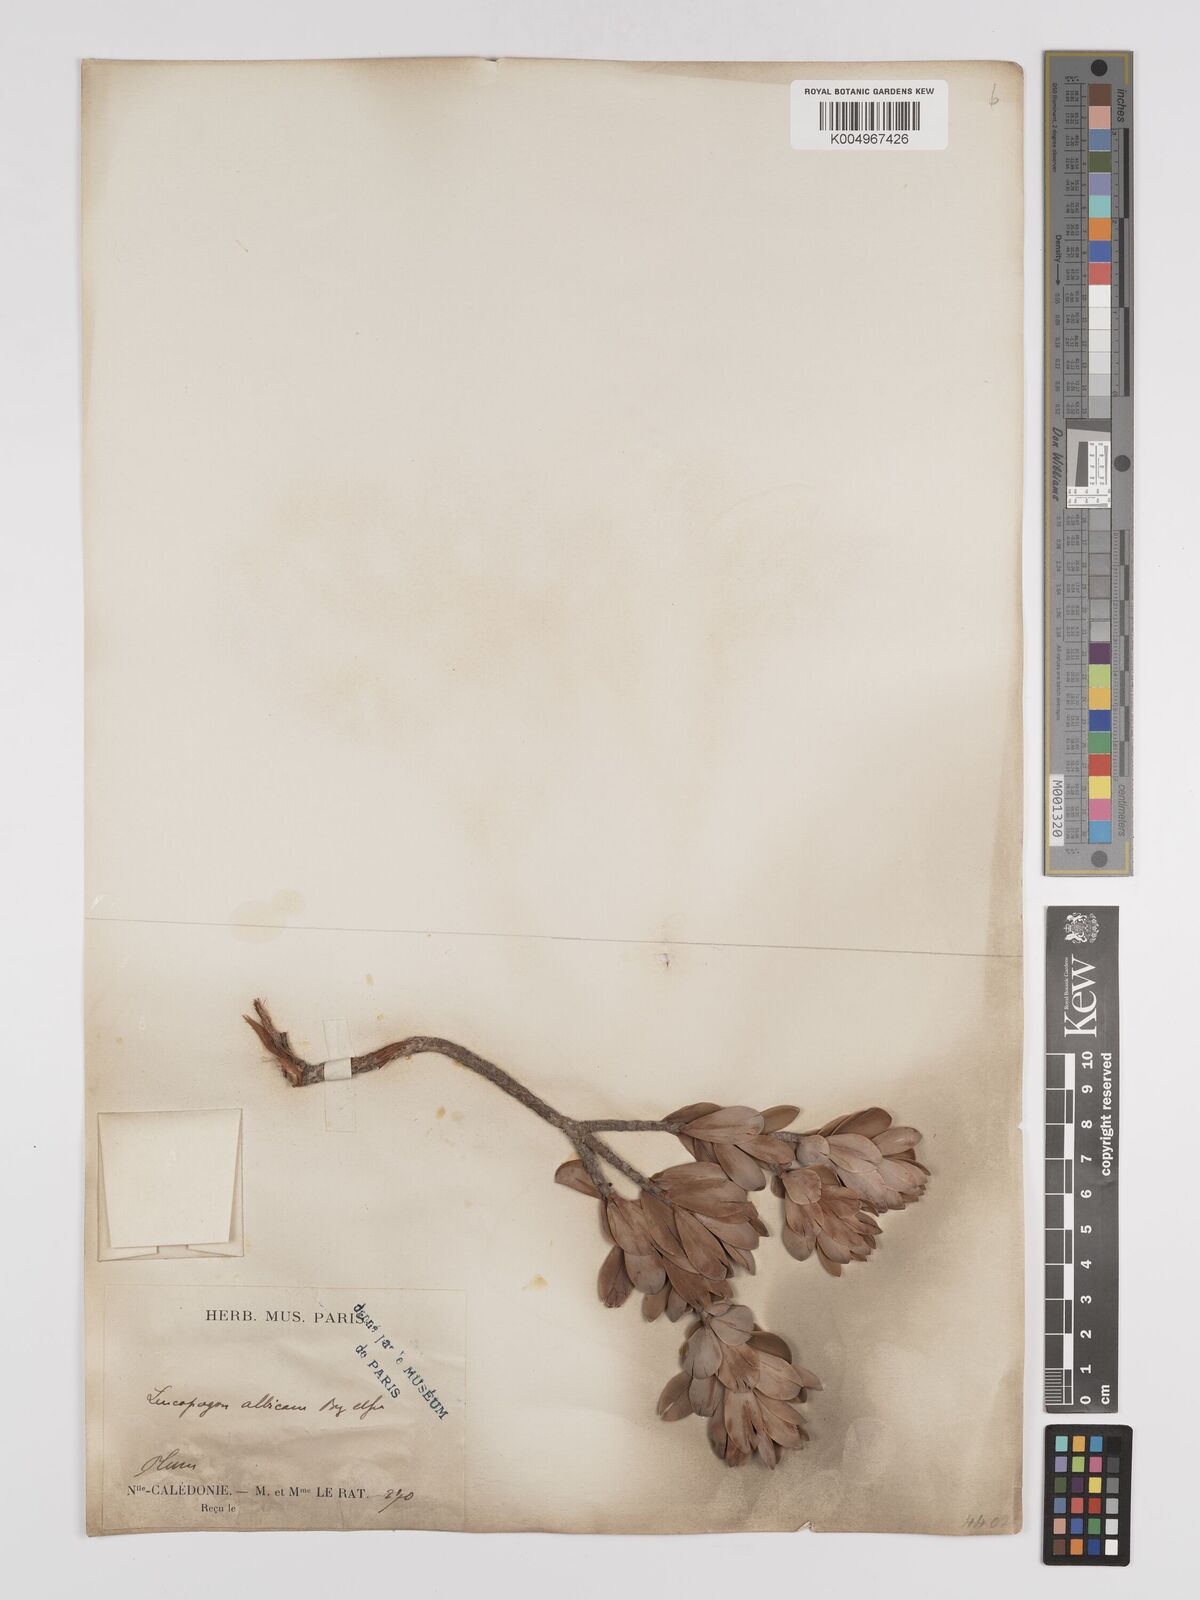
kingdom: Plantae
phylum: Tracheophyta
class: Magnoliopsida
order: Ericales
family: Ericaceae
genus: Cyathopsis
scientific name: Cyathopsis albicans
